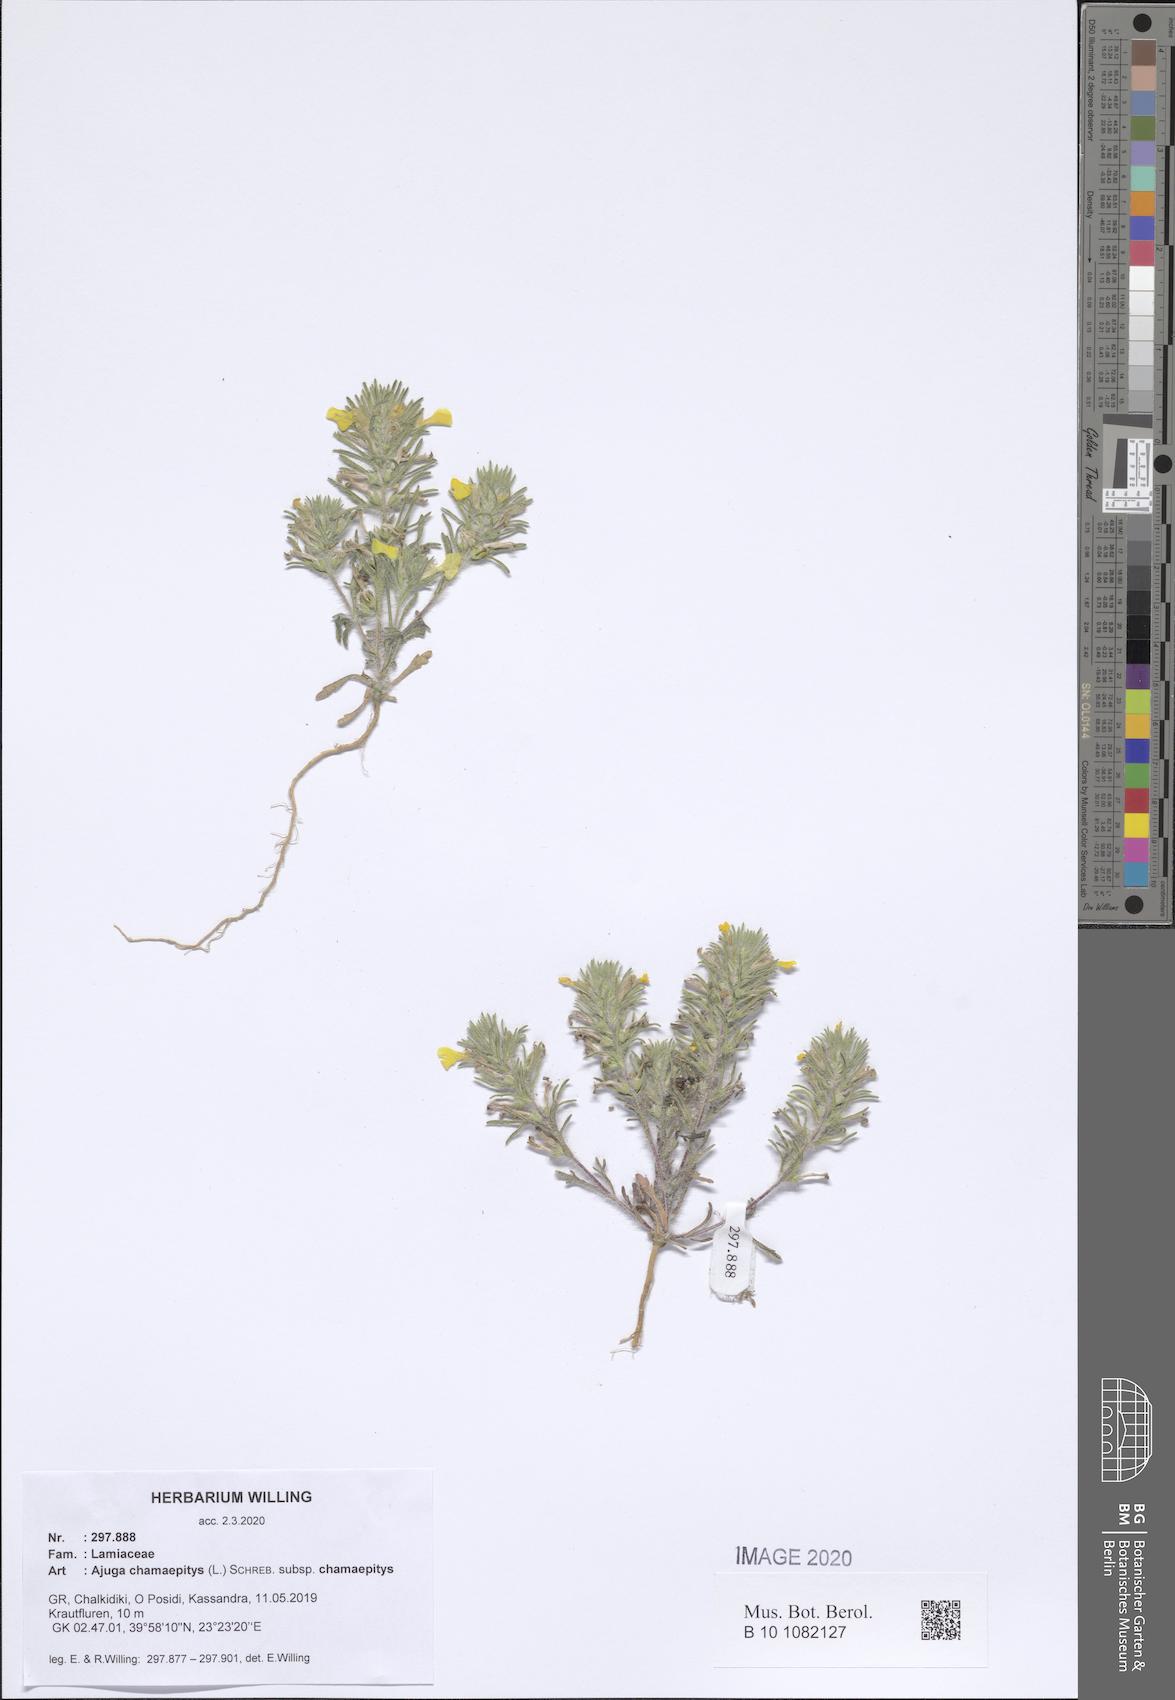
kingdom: Plantae
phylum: Tracheophyta
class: Magnoliopsida
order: Lamiales
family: Lamiaceae
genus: Ajuga
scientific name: Ajuga chamaepitys
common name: Ground-pine
